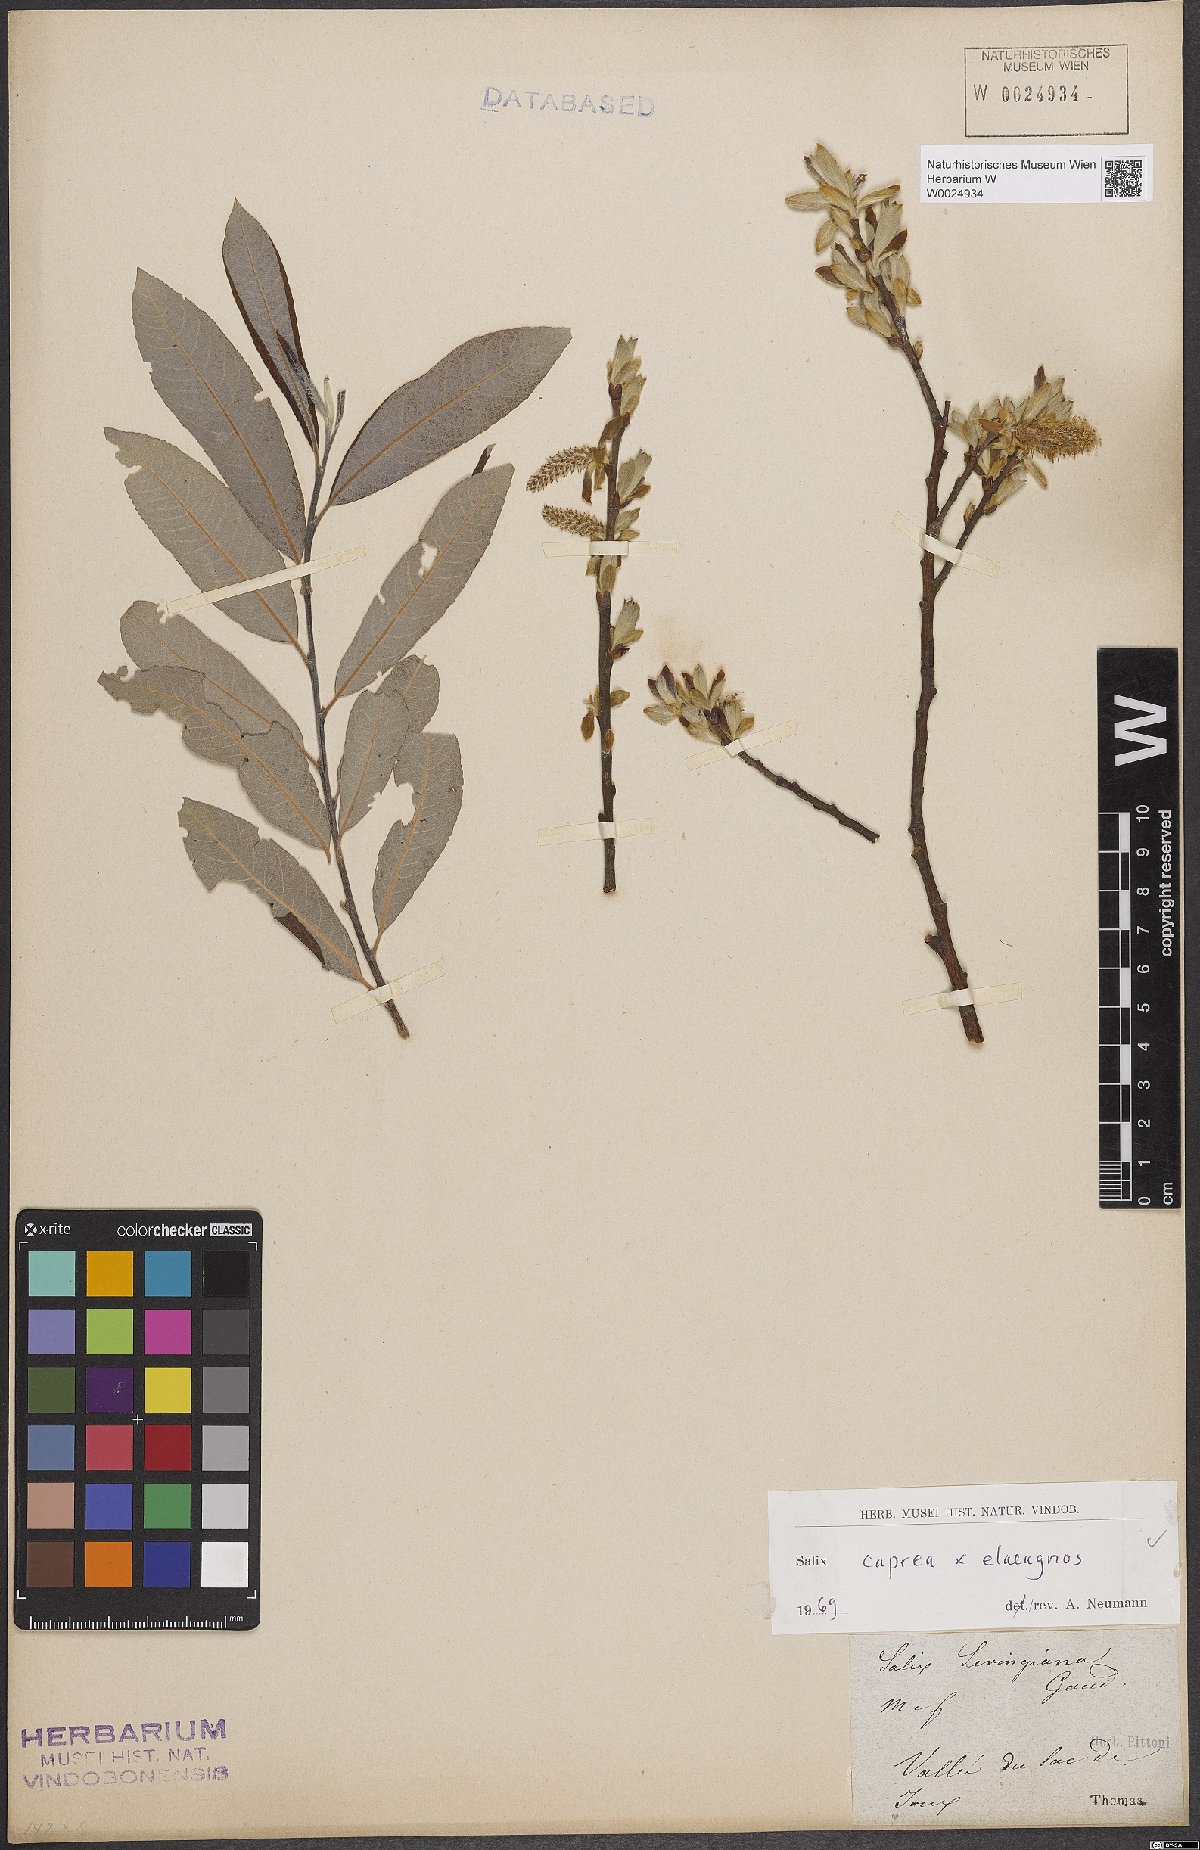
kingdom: Plantae
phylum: Tracheophyta
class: Magnoliopsida
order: Malpighiales
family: Salicaceae
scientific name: Salicaceae
